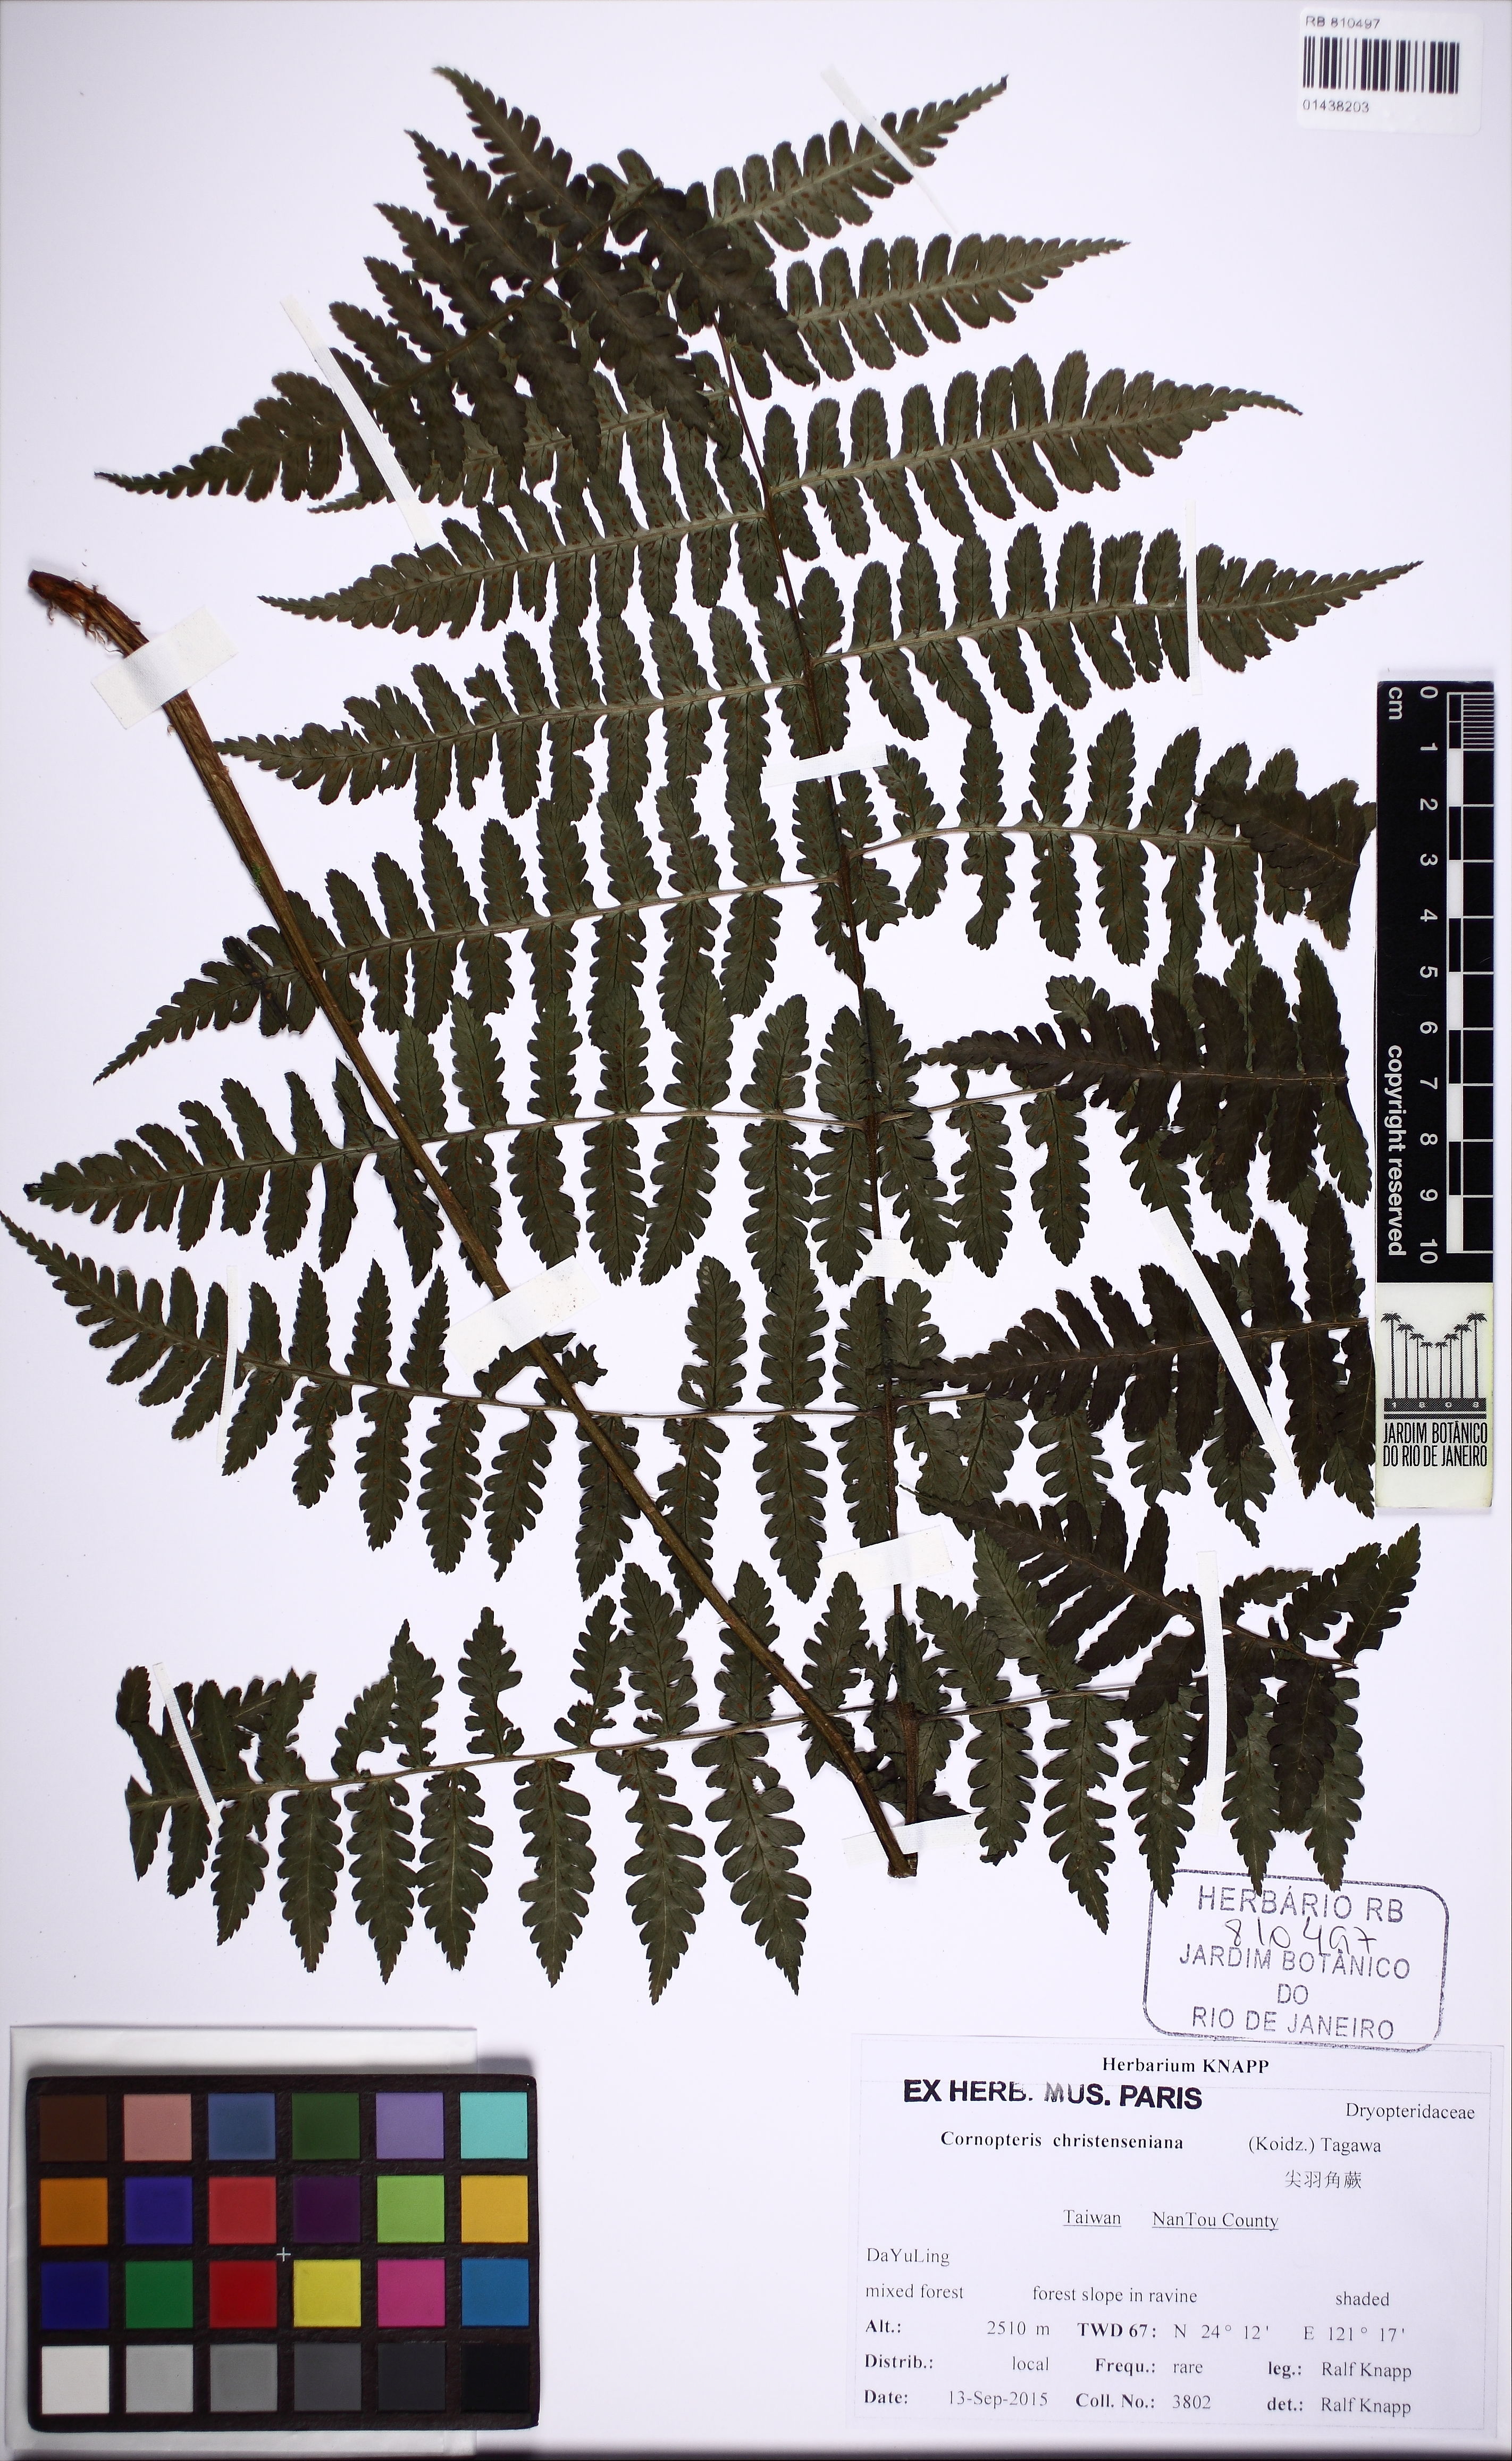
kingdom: Plantae
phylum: Tracheophyta
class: Polypodiopsida
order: Polypodiales
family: Dryopteridaceae
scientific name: Dryopteridaceae
